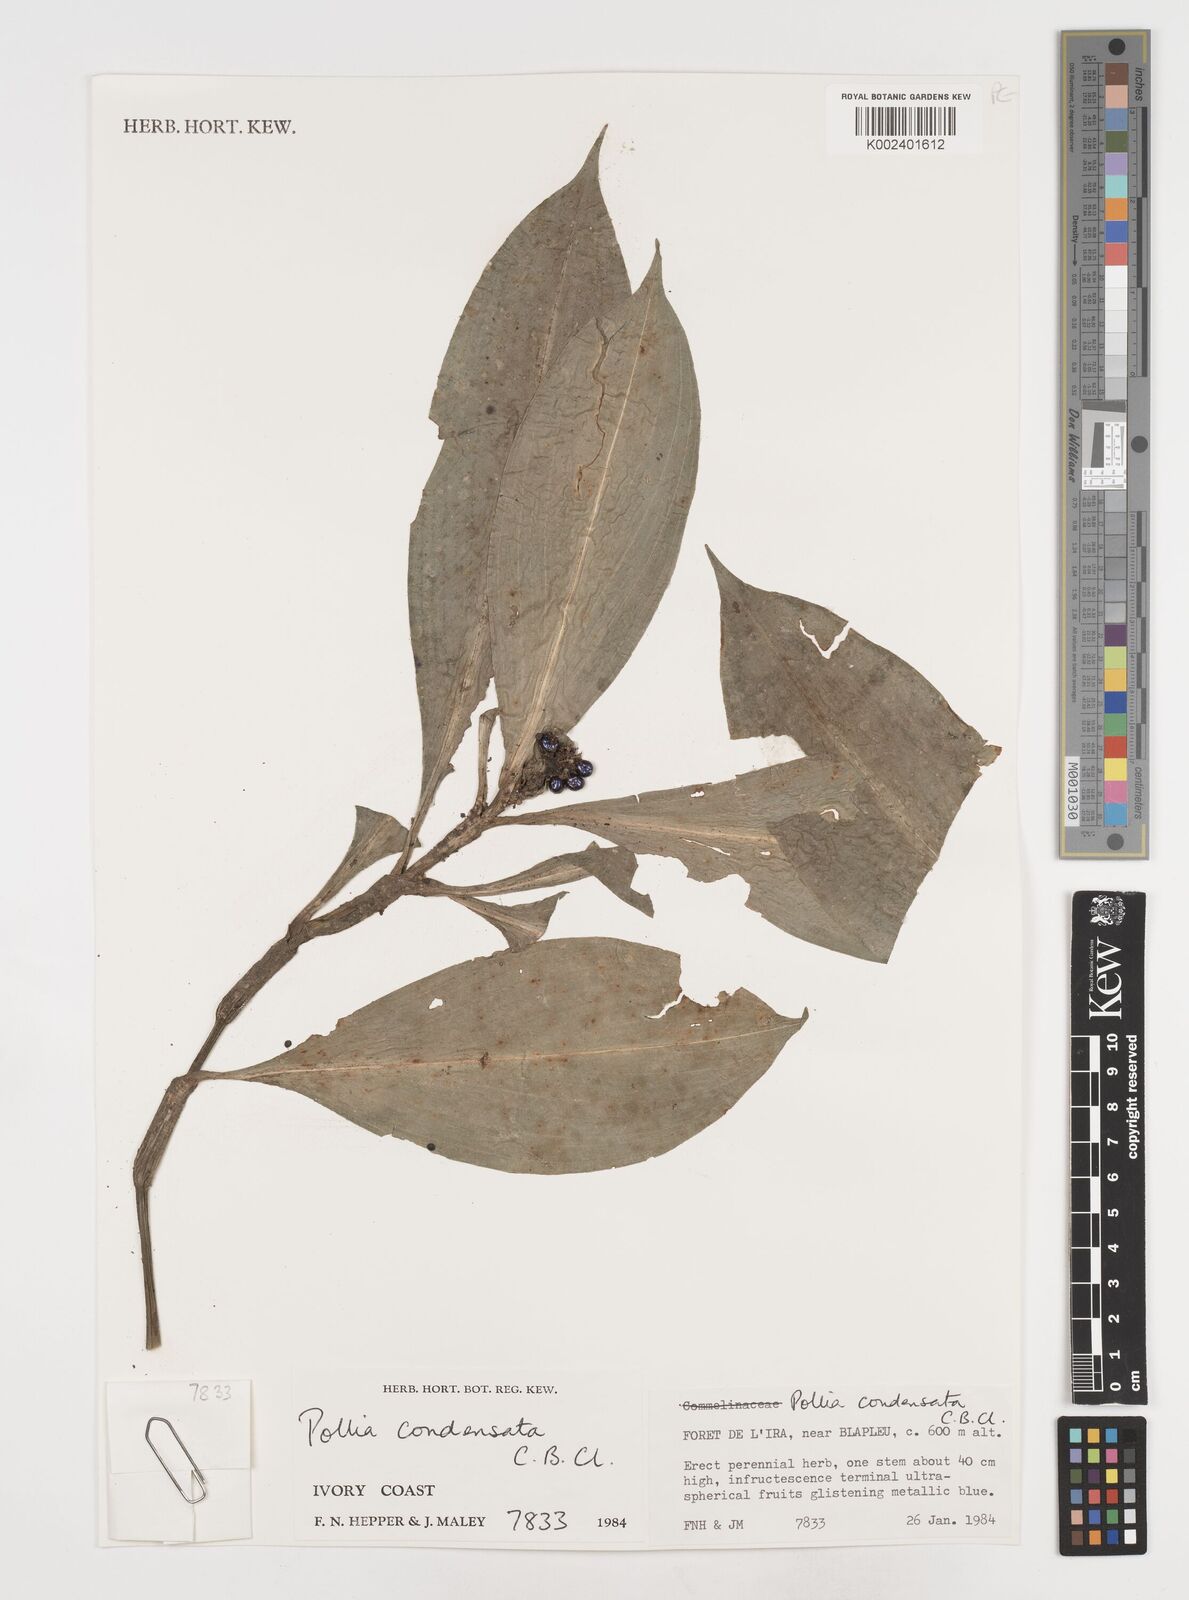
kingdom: Plantae
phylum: Tracheophyta
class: Liliopsida
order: Commelinales
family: Commelinaceae
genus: Pollia
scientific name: Pollia condensata
